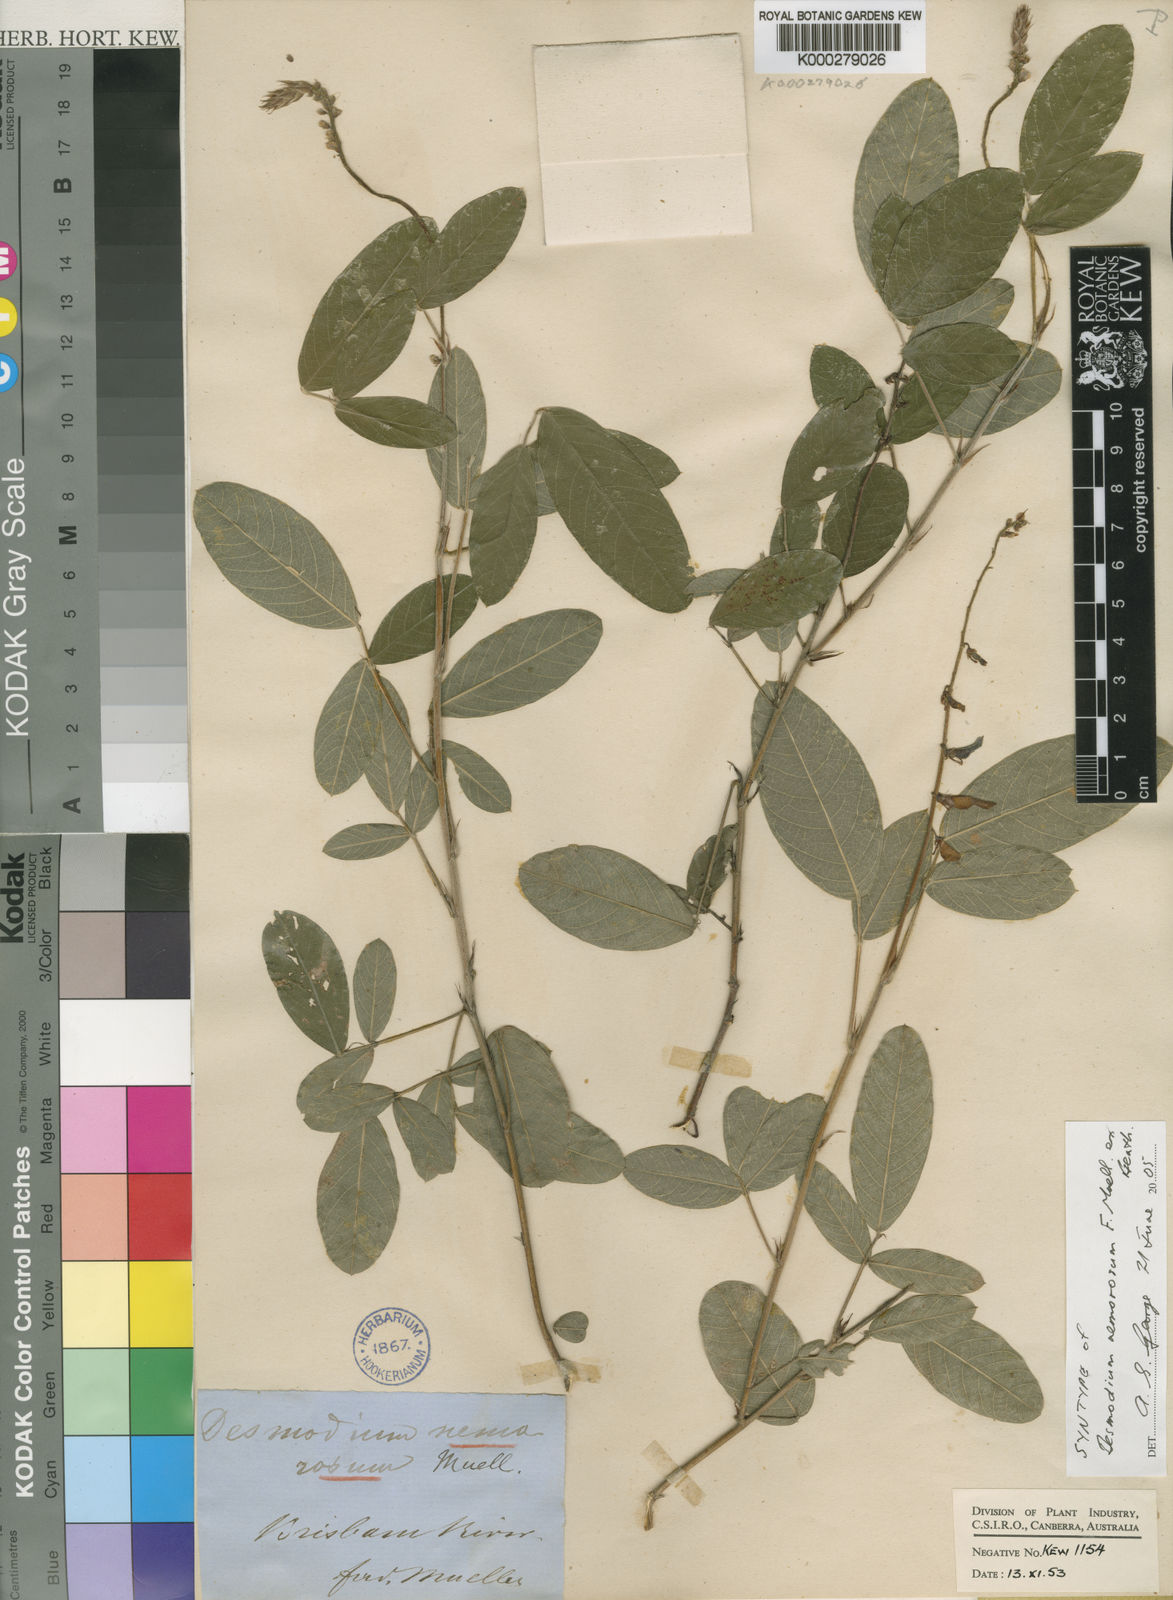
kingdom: Plantae
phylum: Tracheophyta
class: Magnoliopsida
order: Fabales
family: Fabaceae
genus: Grona
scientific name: Grona nemorosa
